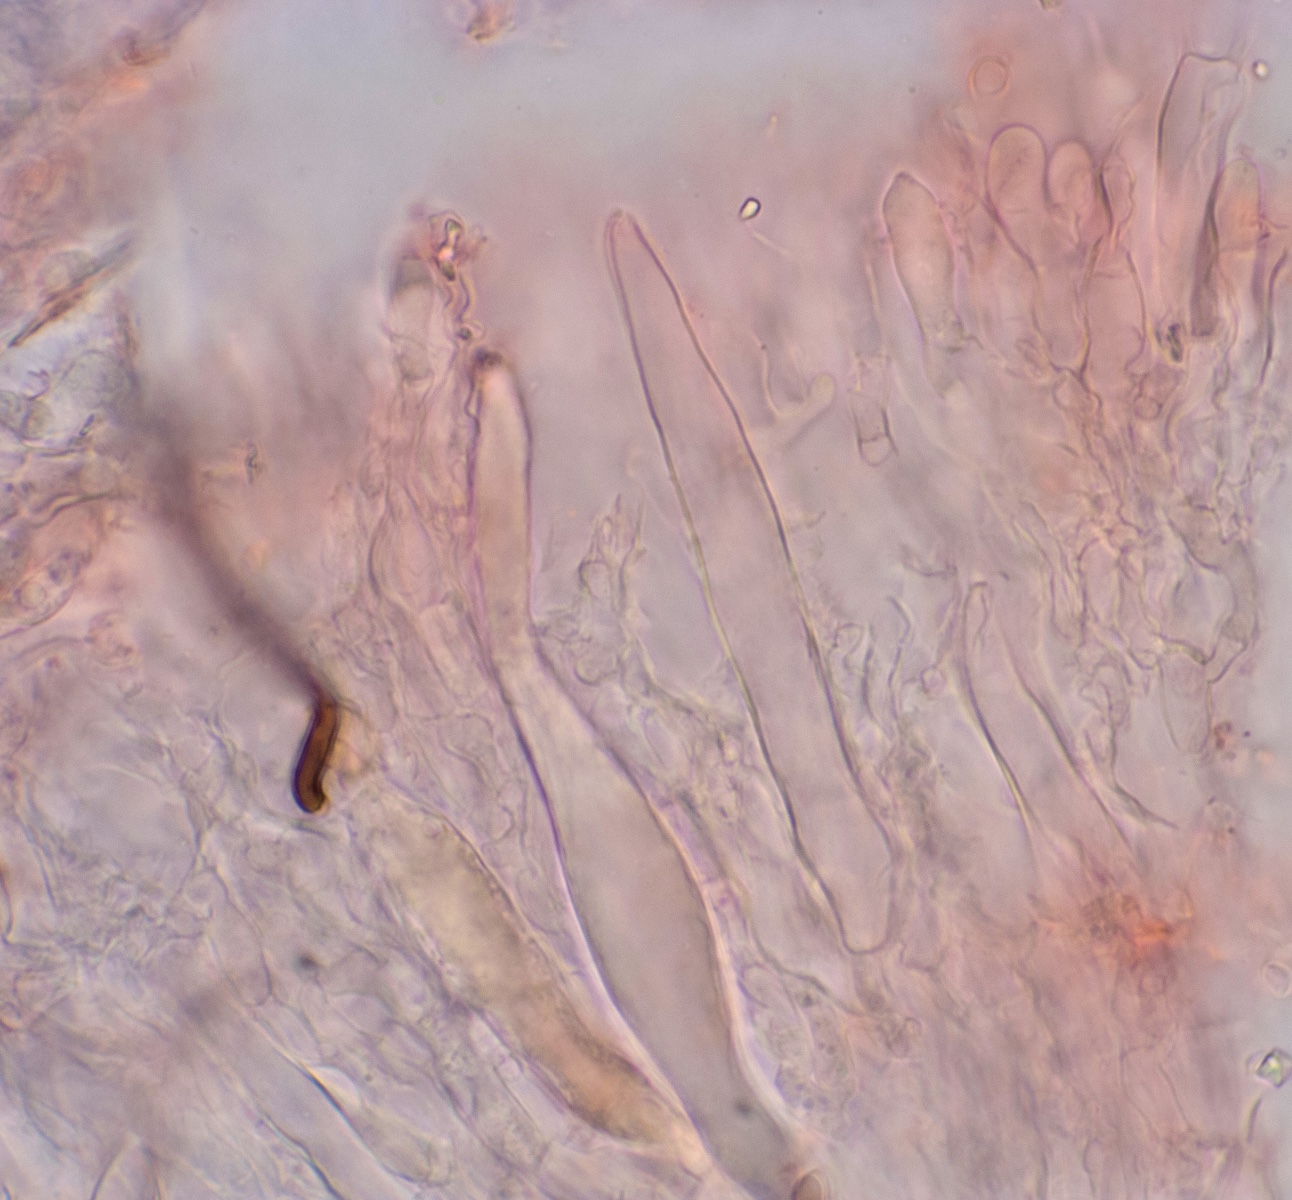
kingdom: Fungi
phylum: Basidiomycota
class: Agaricomycetes
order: Hymenochaetales
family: Rickenellaceae
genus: Peniophorella
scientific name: Peniophorella praetermissa
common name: almindelig kalkskind
